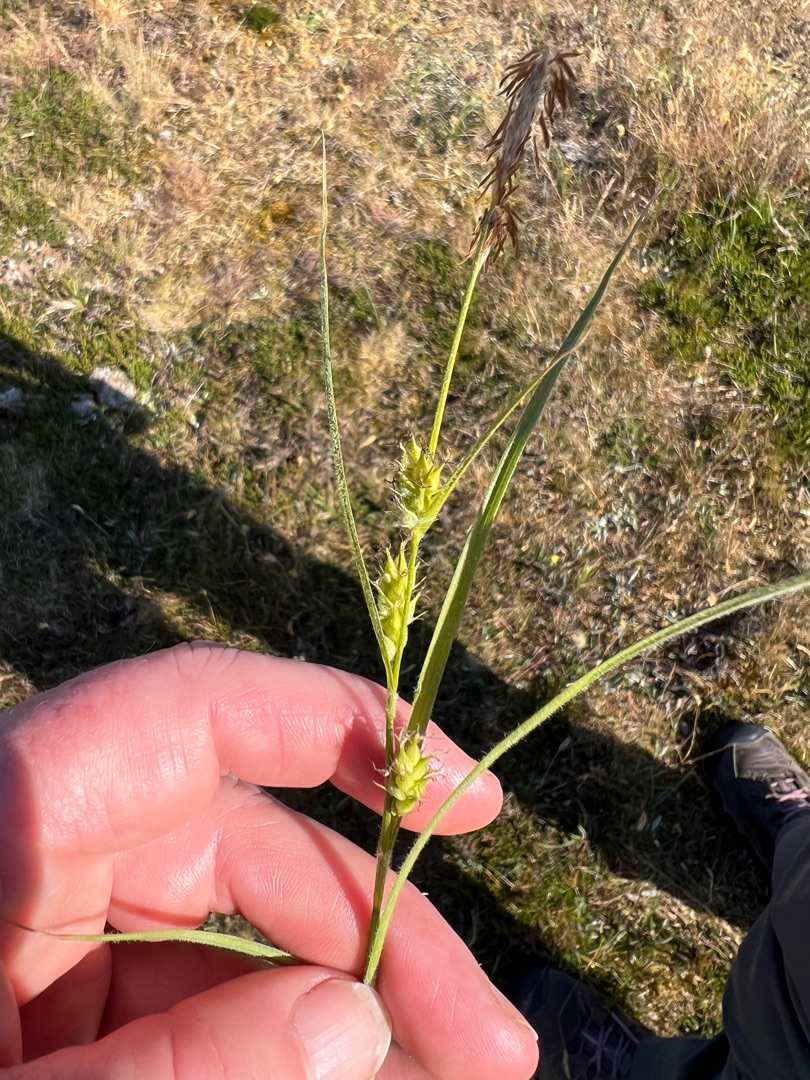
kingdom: Plantae
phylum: Tracheophyta
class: Liliopsida
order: Poales
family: Cyperaceae
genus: Carex
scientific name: Carex hirta
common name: Håret star
